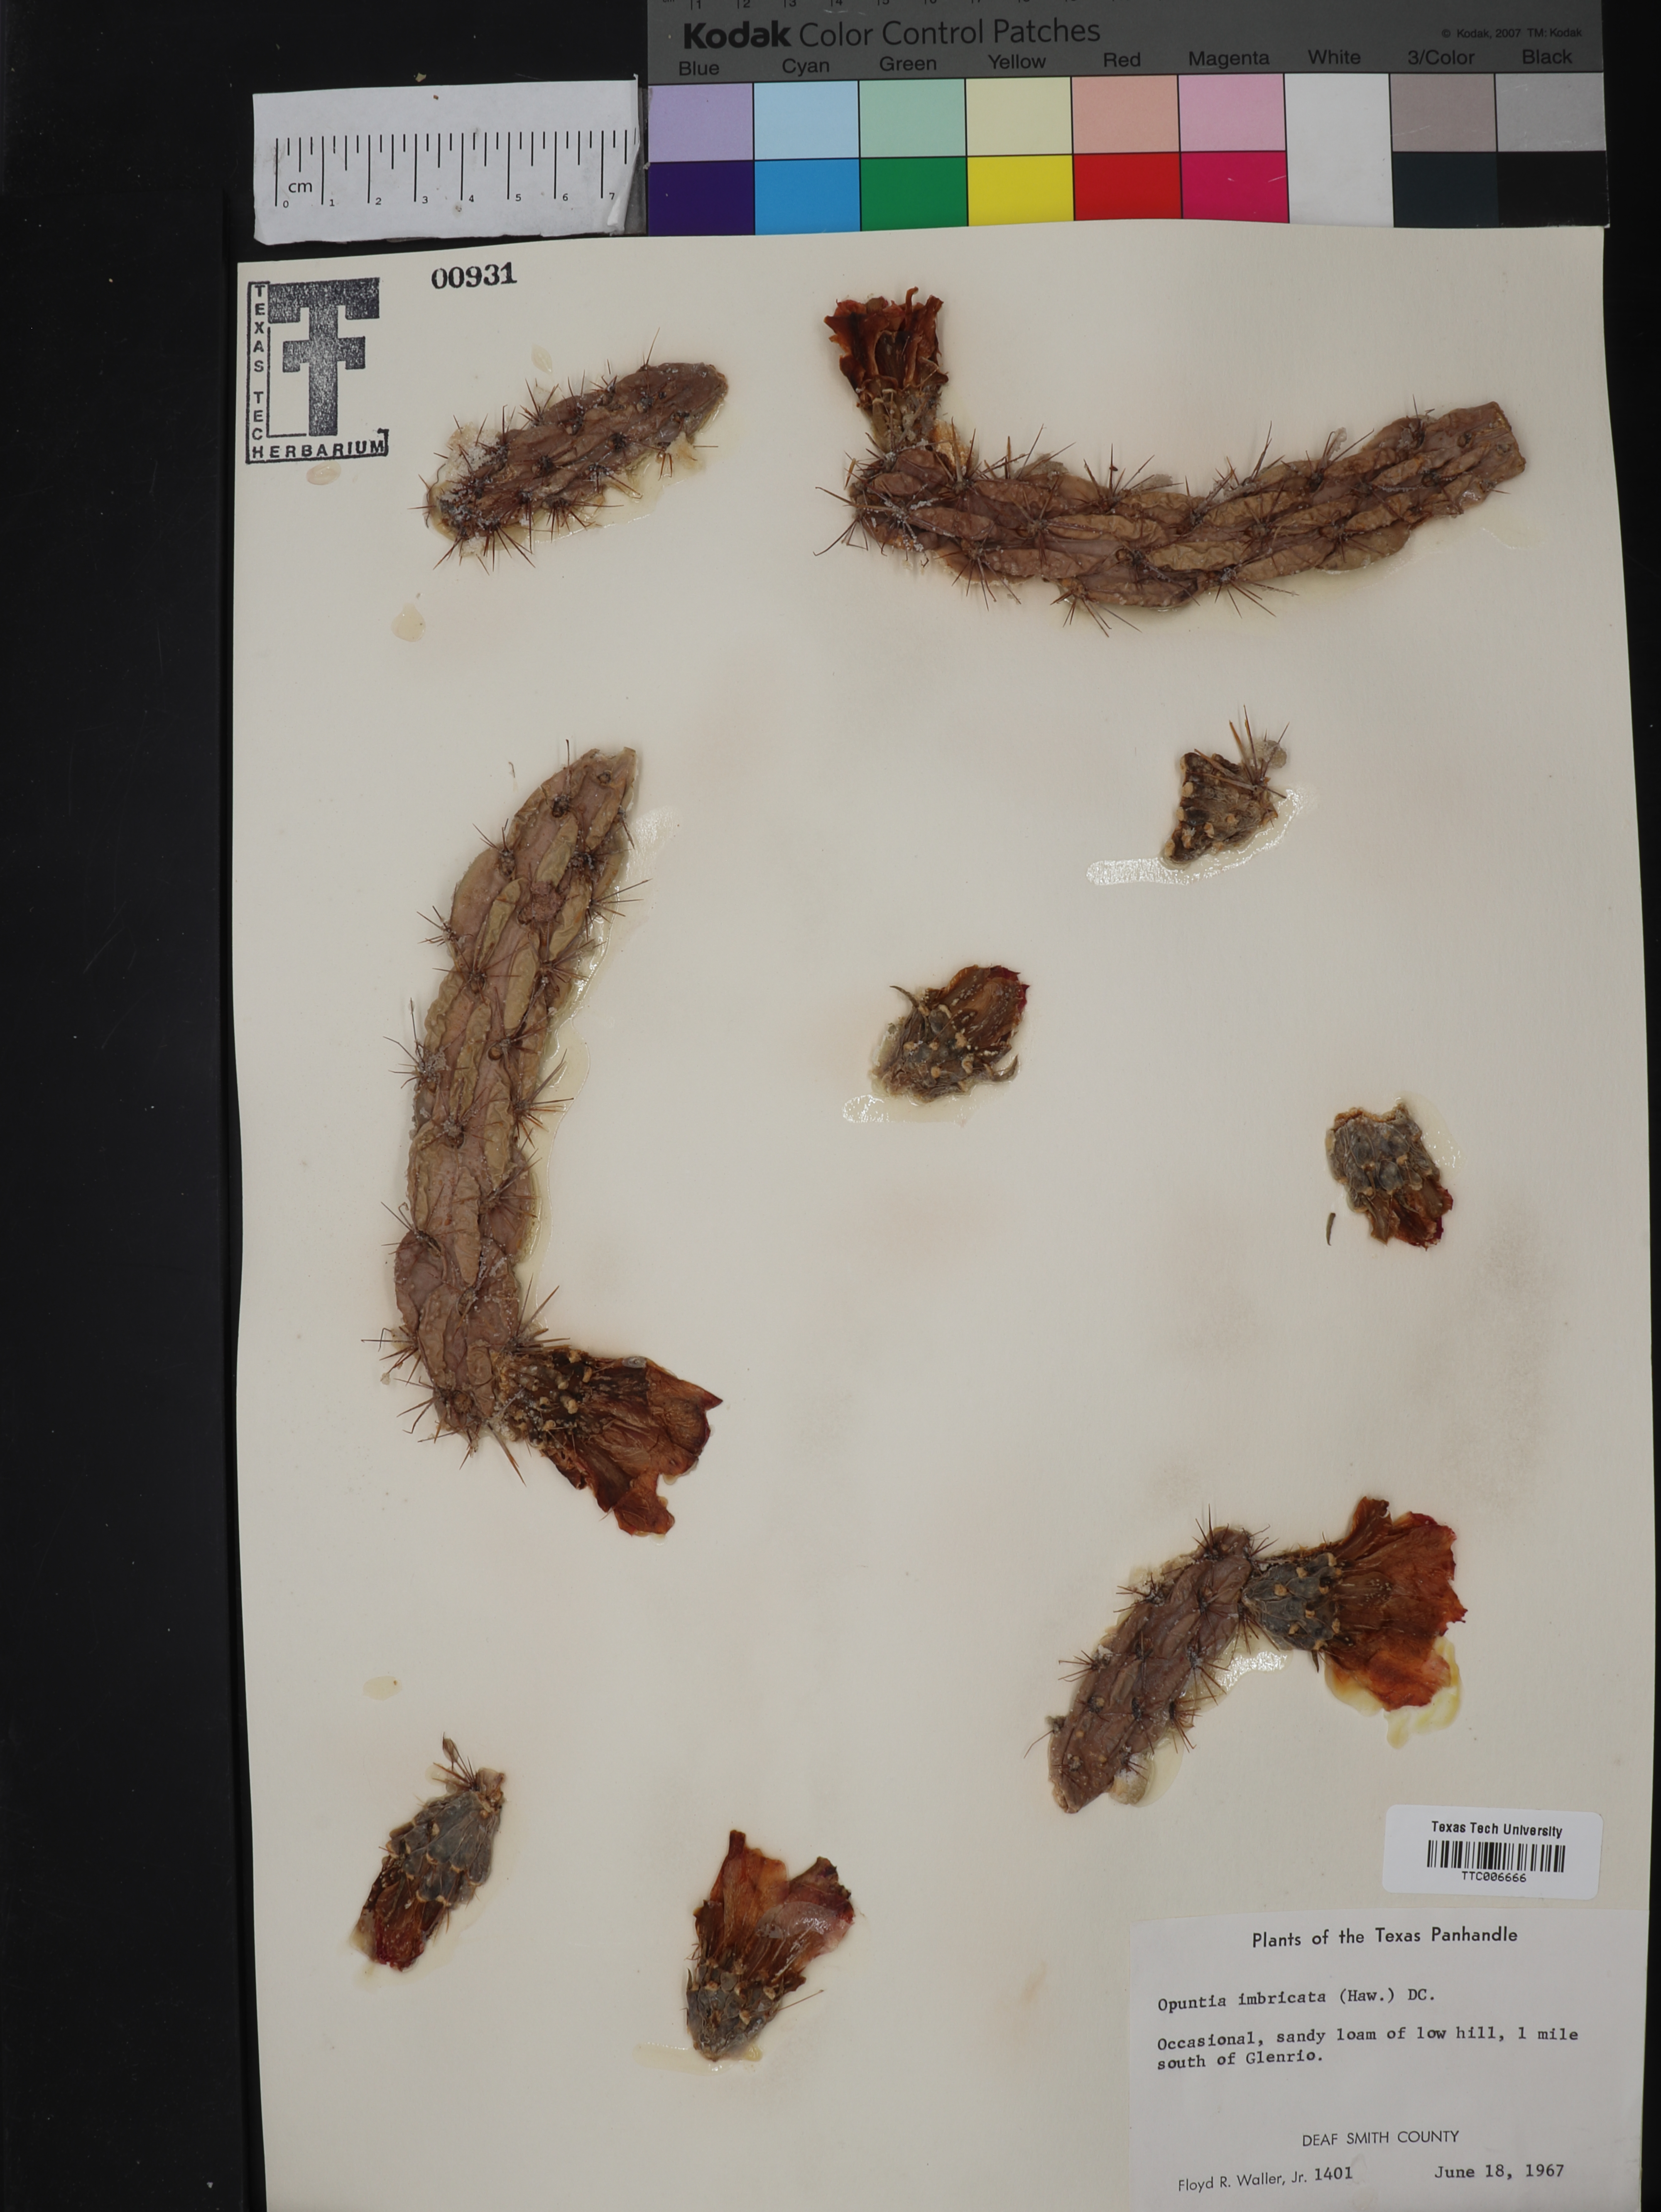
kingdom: Plantae
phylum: Tracheophyta
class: Magnoliopsida
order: Caryophyllales
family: Cactaceae
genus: Cylindropuntia
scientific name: Cylindropuntia imbricata
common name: Candelabrum cactus
